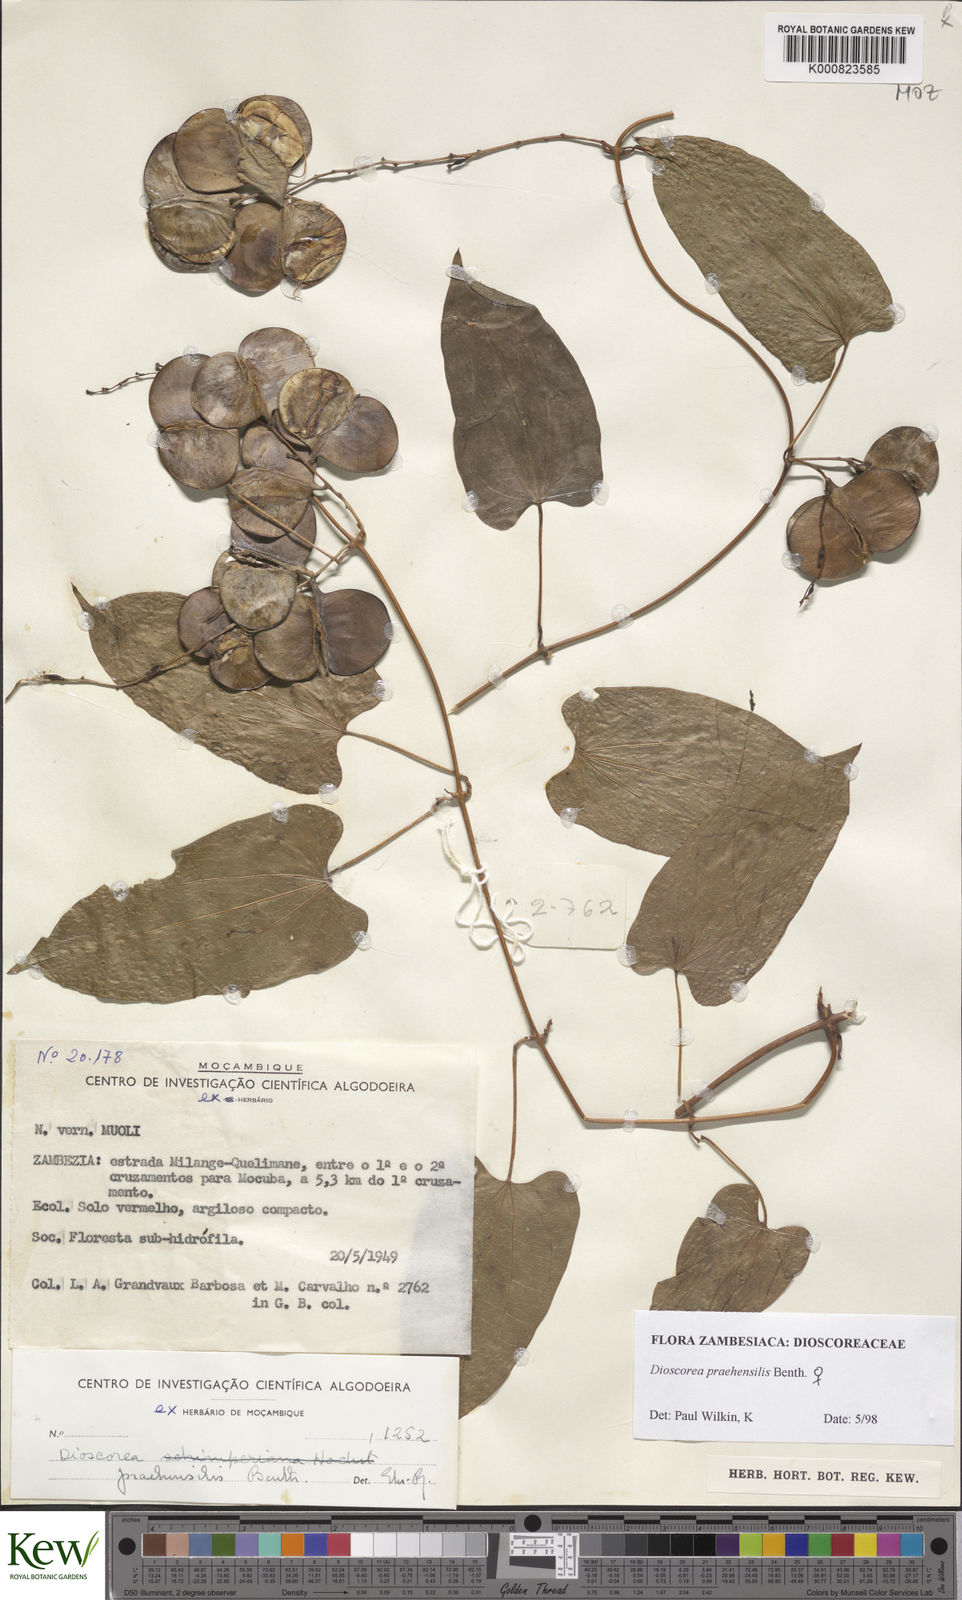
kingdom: Plantae
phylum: Tracheophyta
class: Liliopsida
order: Dioscoreales
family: Dioscoreaceae
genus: Dioscorea
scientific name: Dioscorea praehensilis
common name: Bush yam
